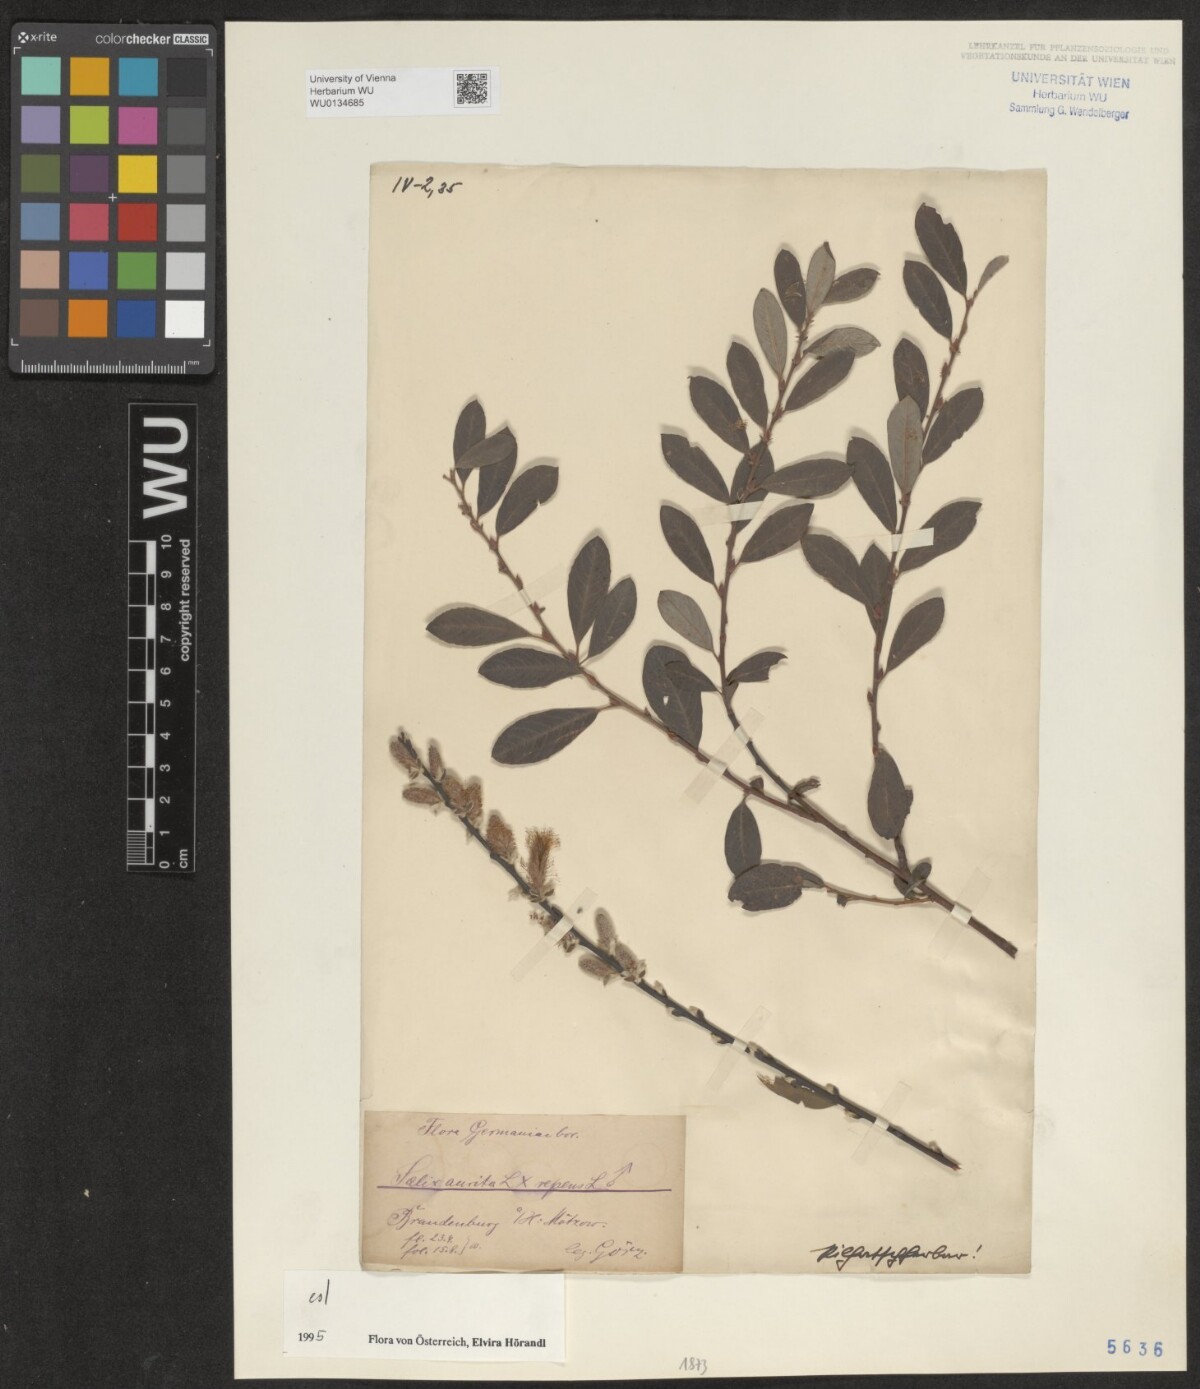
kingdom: Plantae
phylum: Tracheophyta
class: Magnoliopsida
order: Malpighiales
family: Salicaceae
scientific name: Salicaceae
